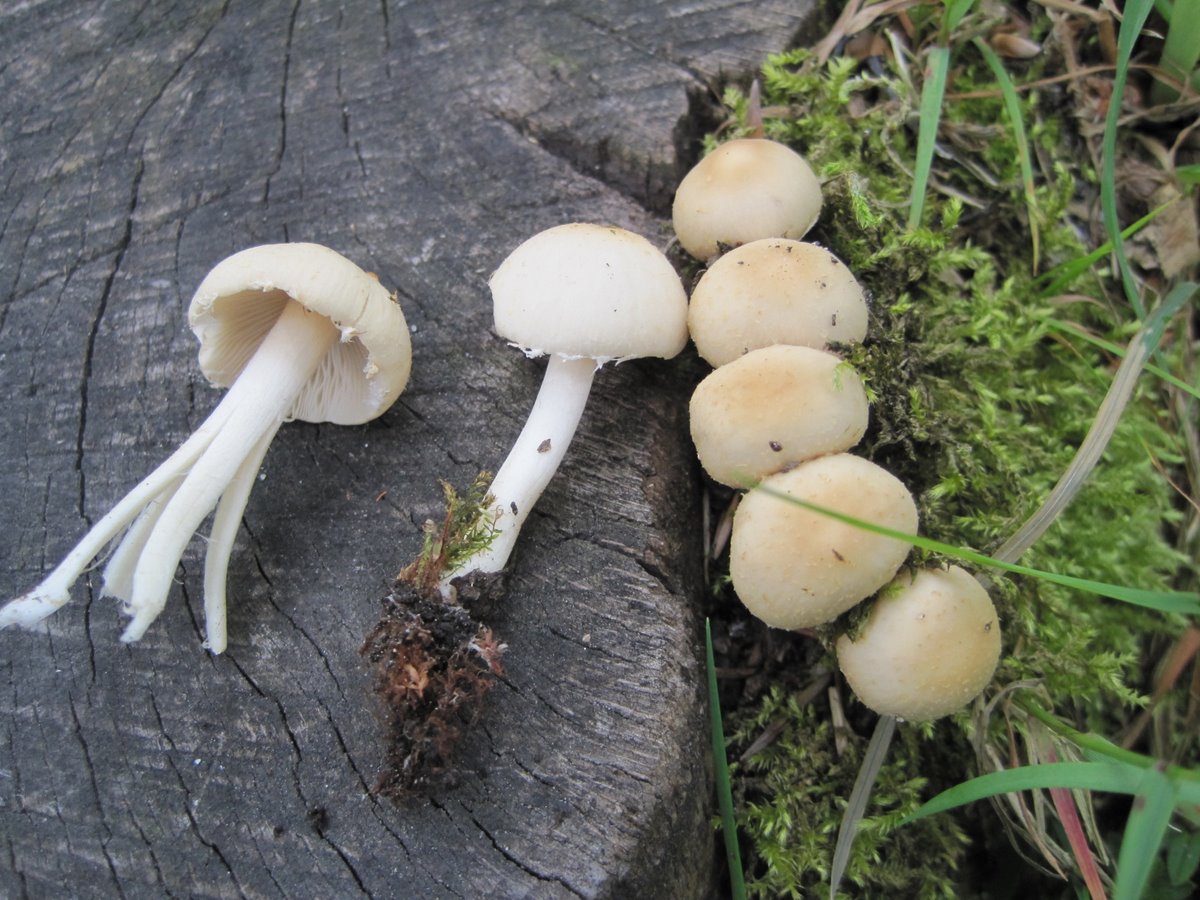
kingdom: Fungi
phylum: Basidiomycota
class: Agaricomycetes
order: Agaricales
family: Psathyrellaceae
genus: Candolleomyces
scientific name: Candolleomyces candolleanus
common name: Candolles mørkhat
